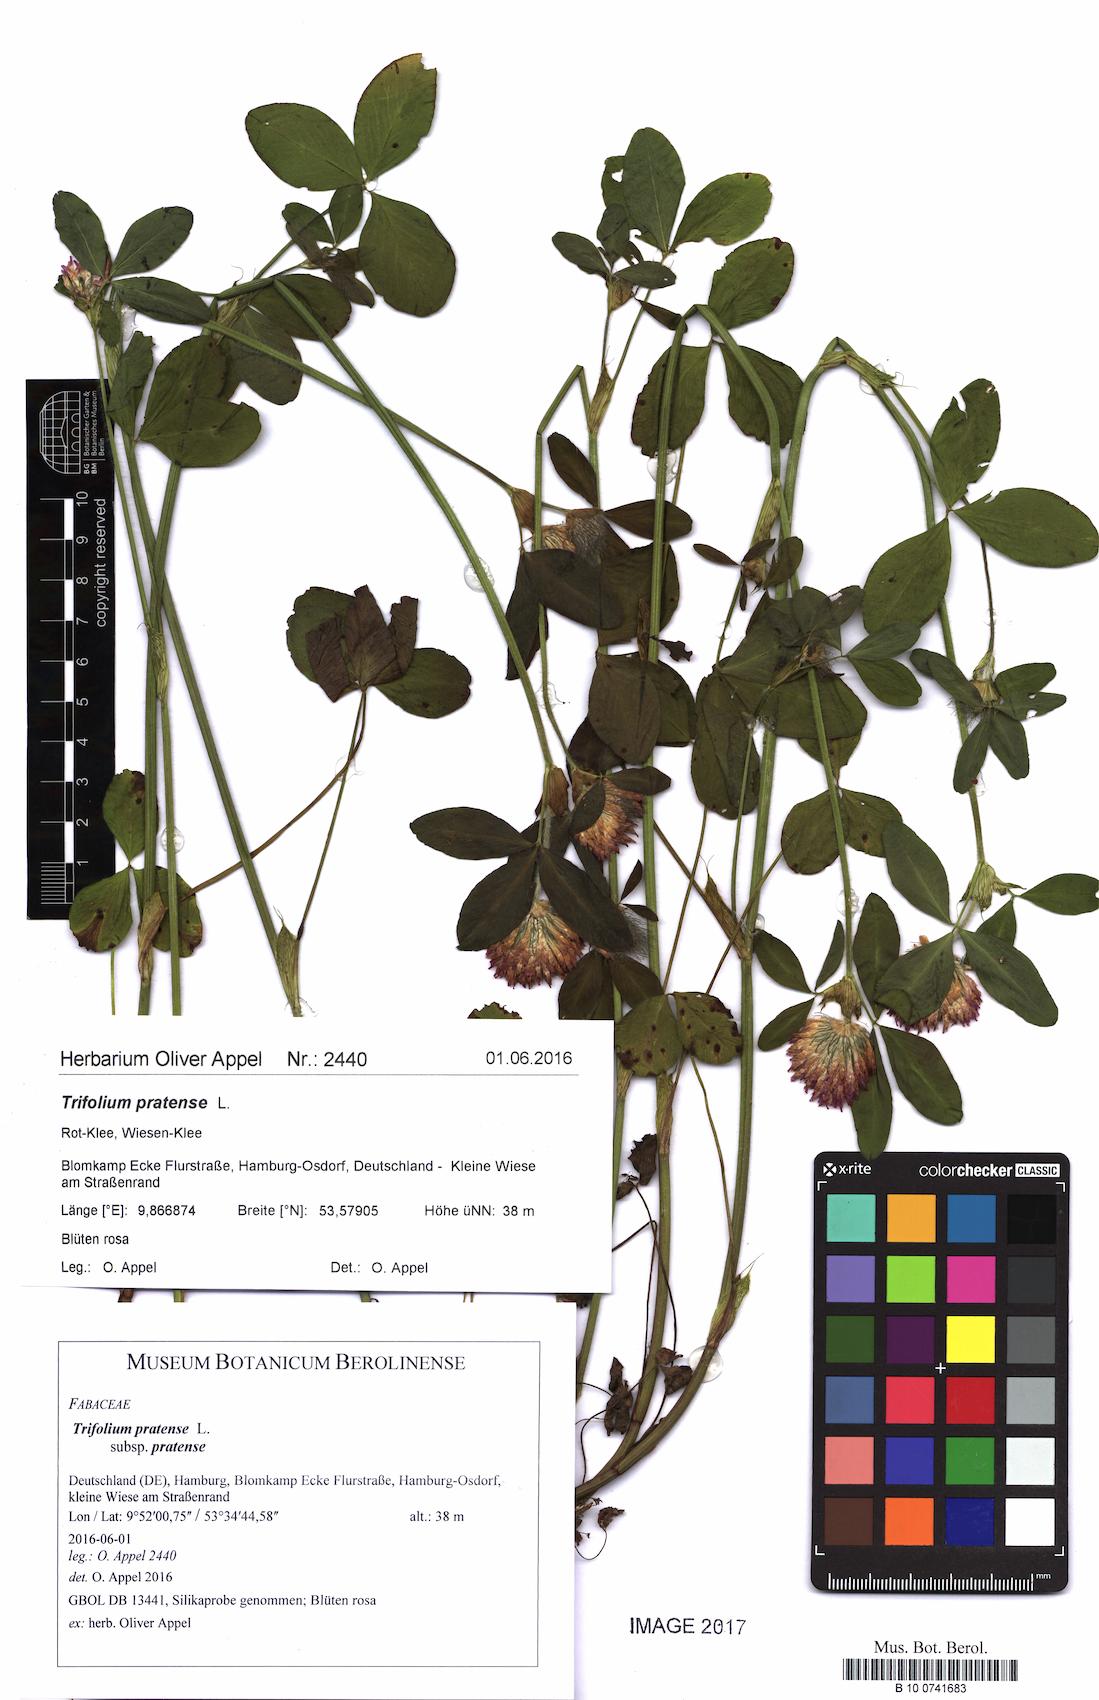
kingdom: Plantae
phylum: Tracheophyta
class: Magnoliopsida
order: Fabales
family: Fabaceae
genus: Trifolium
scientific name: Trifolium pratense
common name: Red clover
